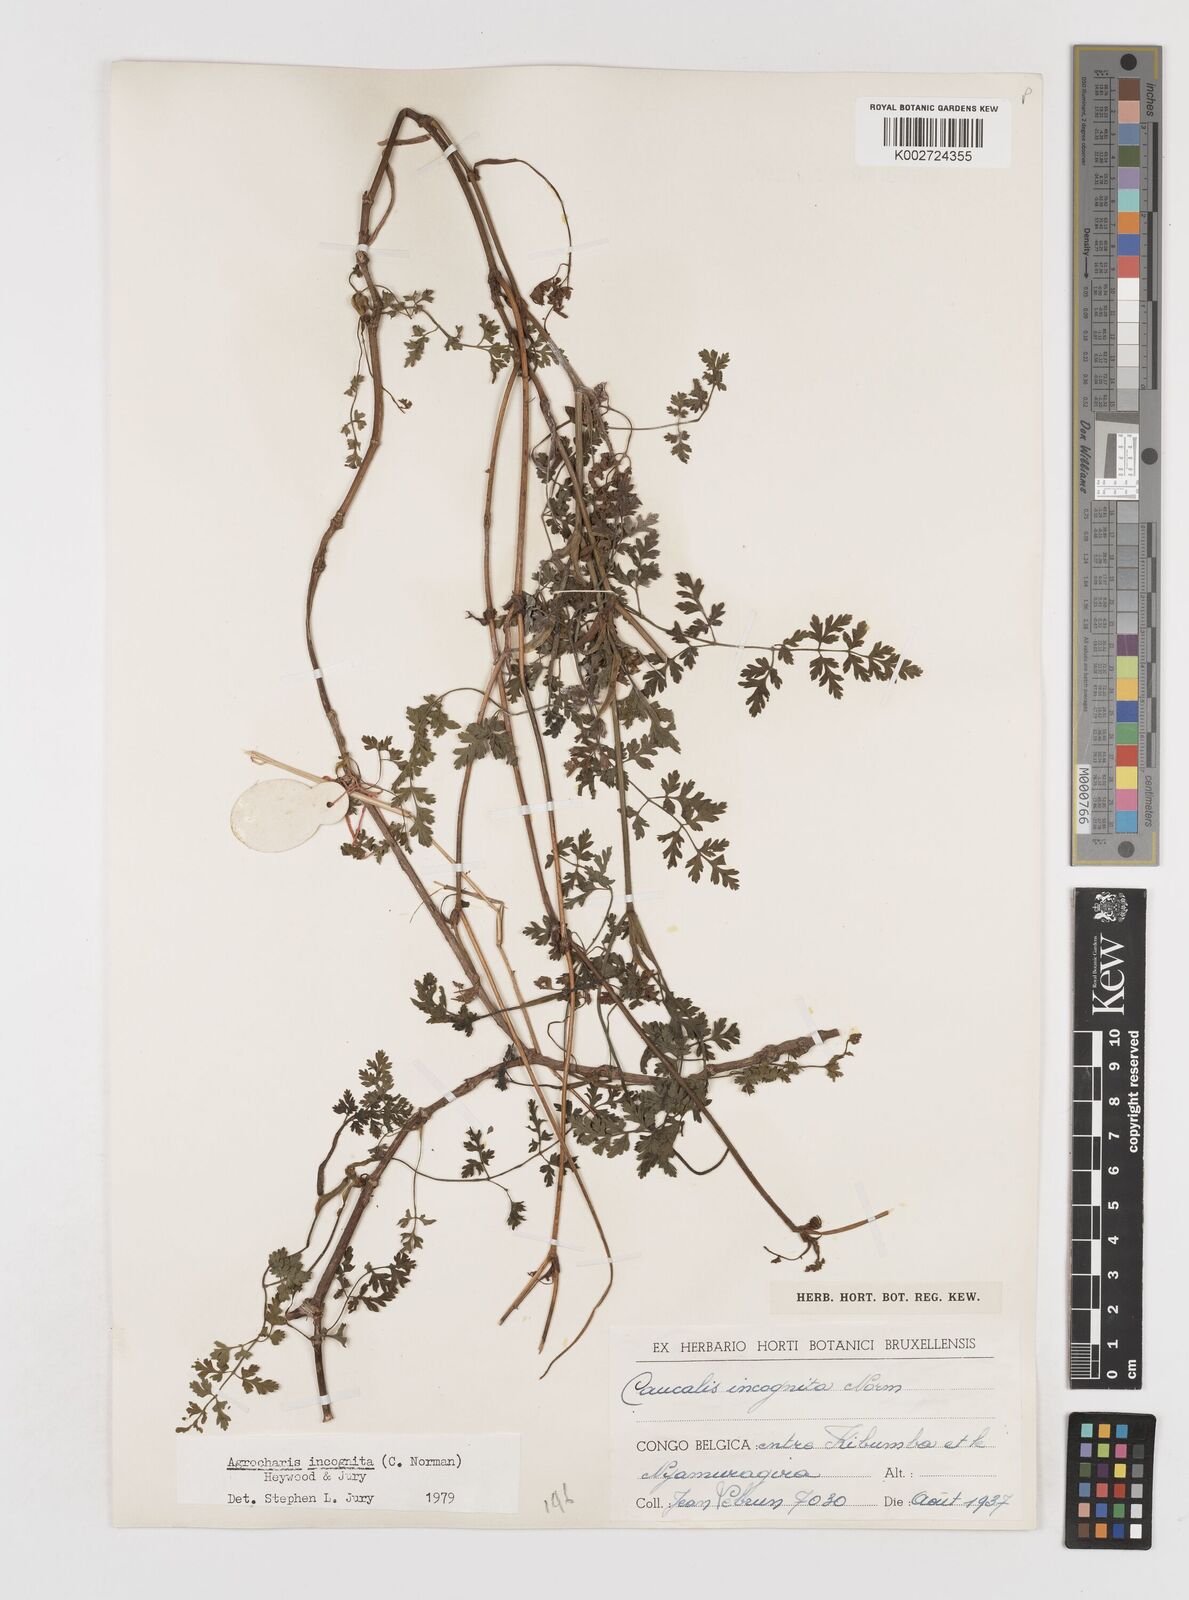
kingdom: Plantae
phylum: Tracheophyta
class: Magnoliopsida
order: Apiales
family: Apiaceae
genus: Daucus
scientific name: Daucus incognitus
